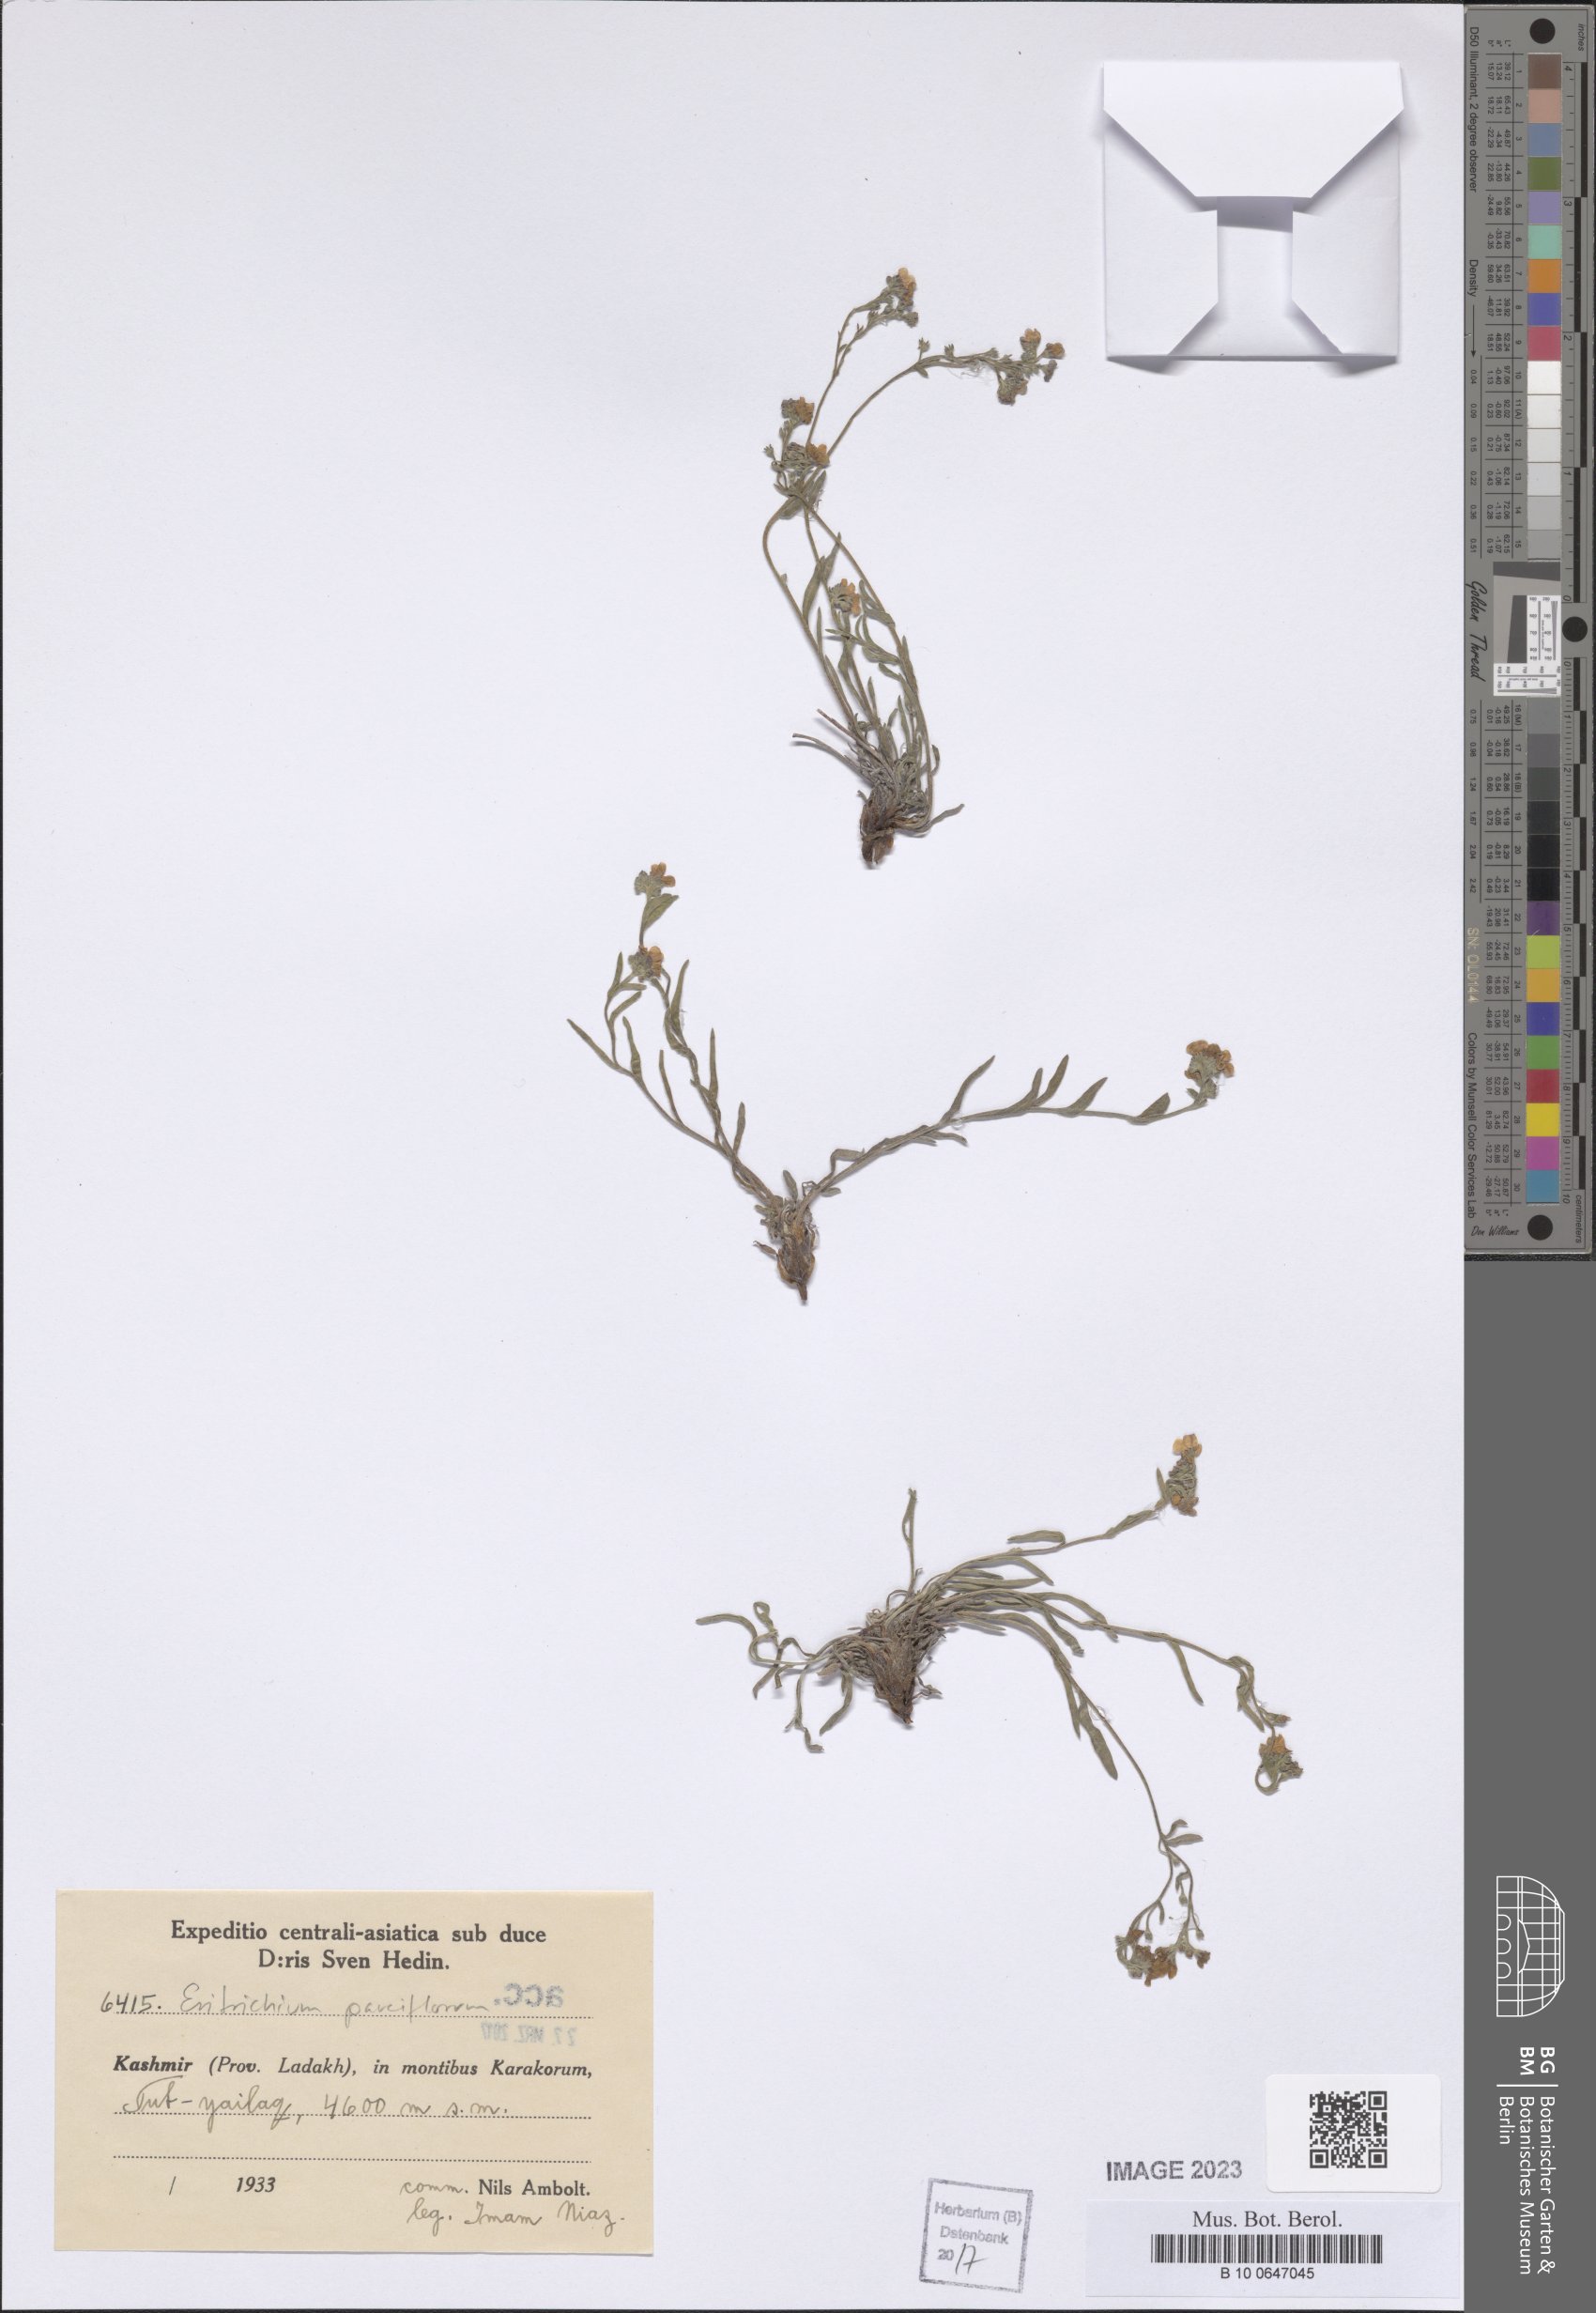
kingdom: Plantae
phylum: Tracheophyta
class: Magnoliopsida
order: Boraginales
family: Boraginaceae
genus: Eritrichium
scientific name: Eritrichium pauciflorum
